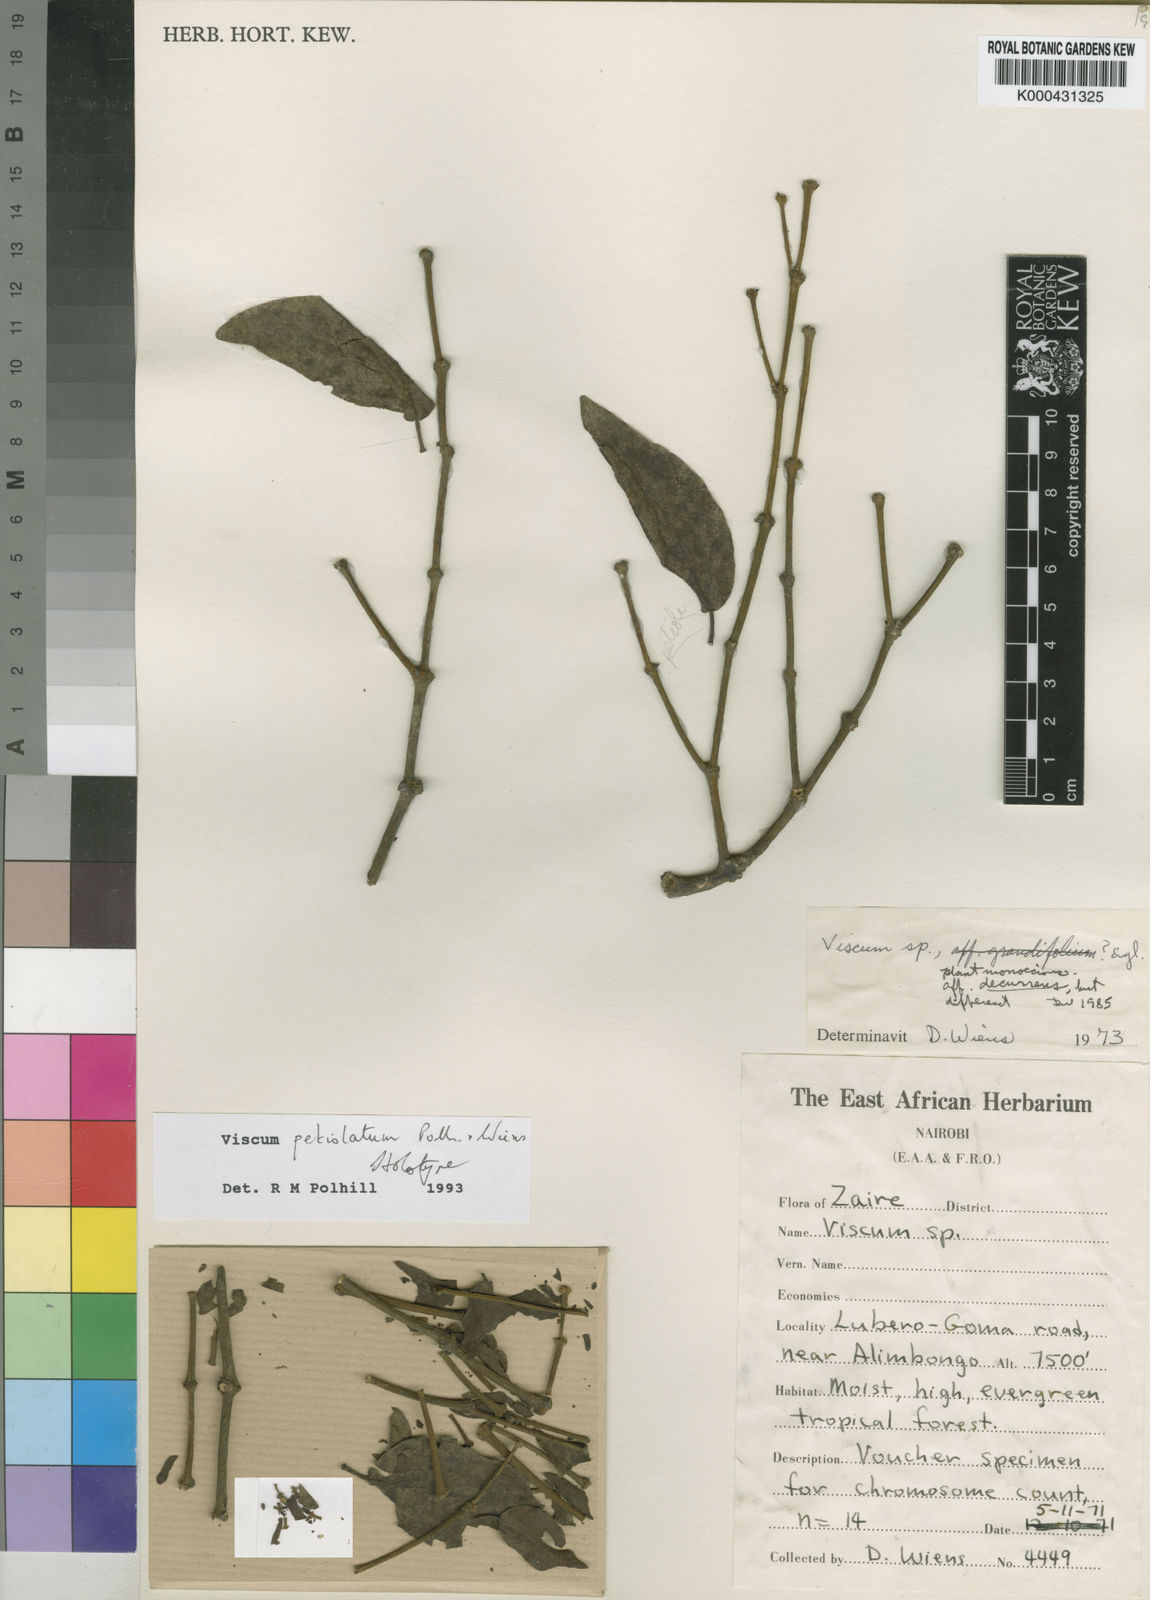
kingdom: Plantae
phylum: Tracheophyta
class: Magnoliopsida
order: Santalales
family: Viscaceae
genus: Viscum
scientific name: Viscum petiolatum
